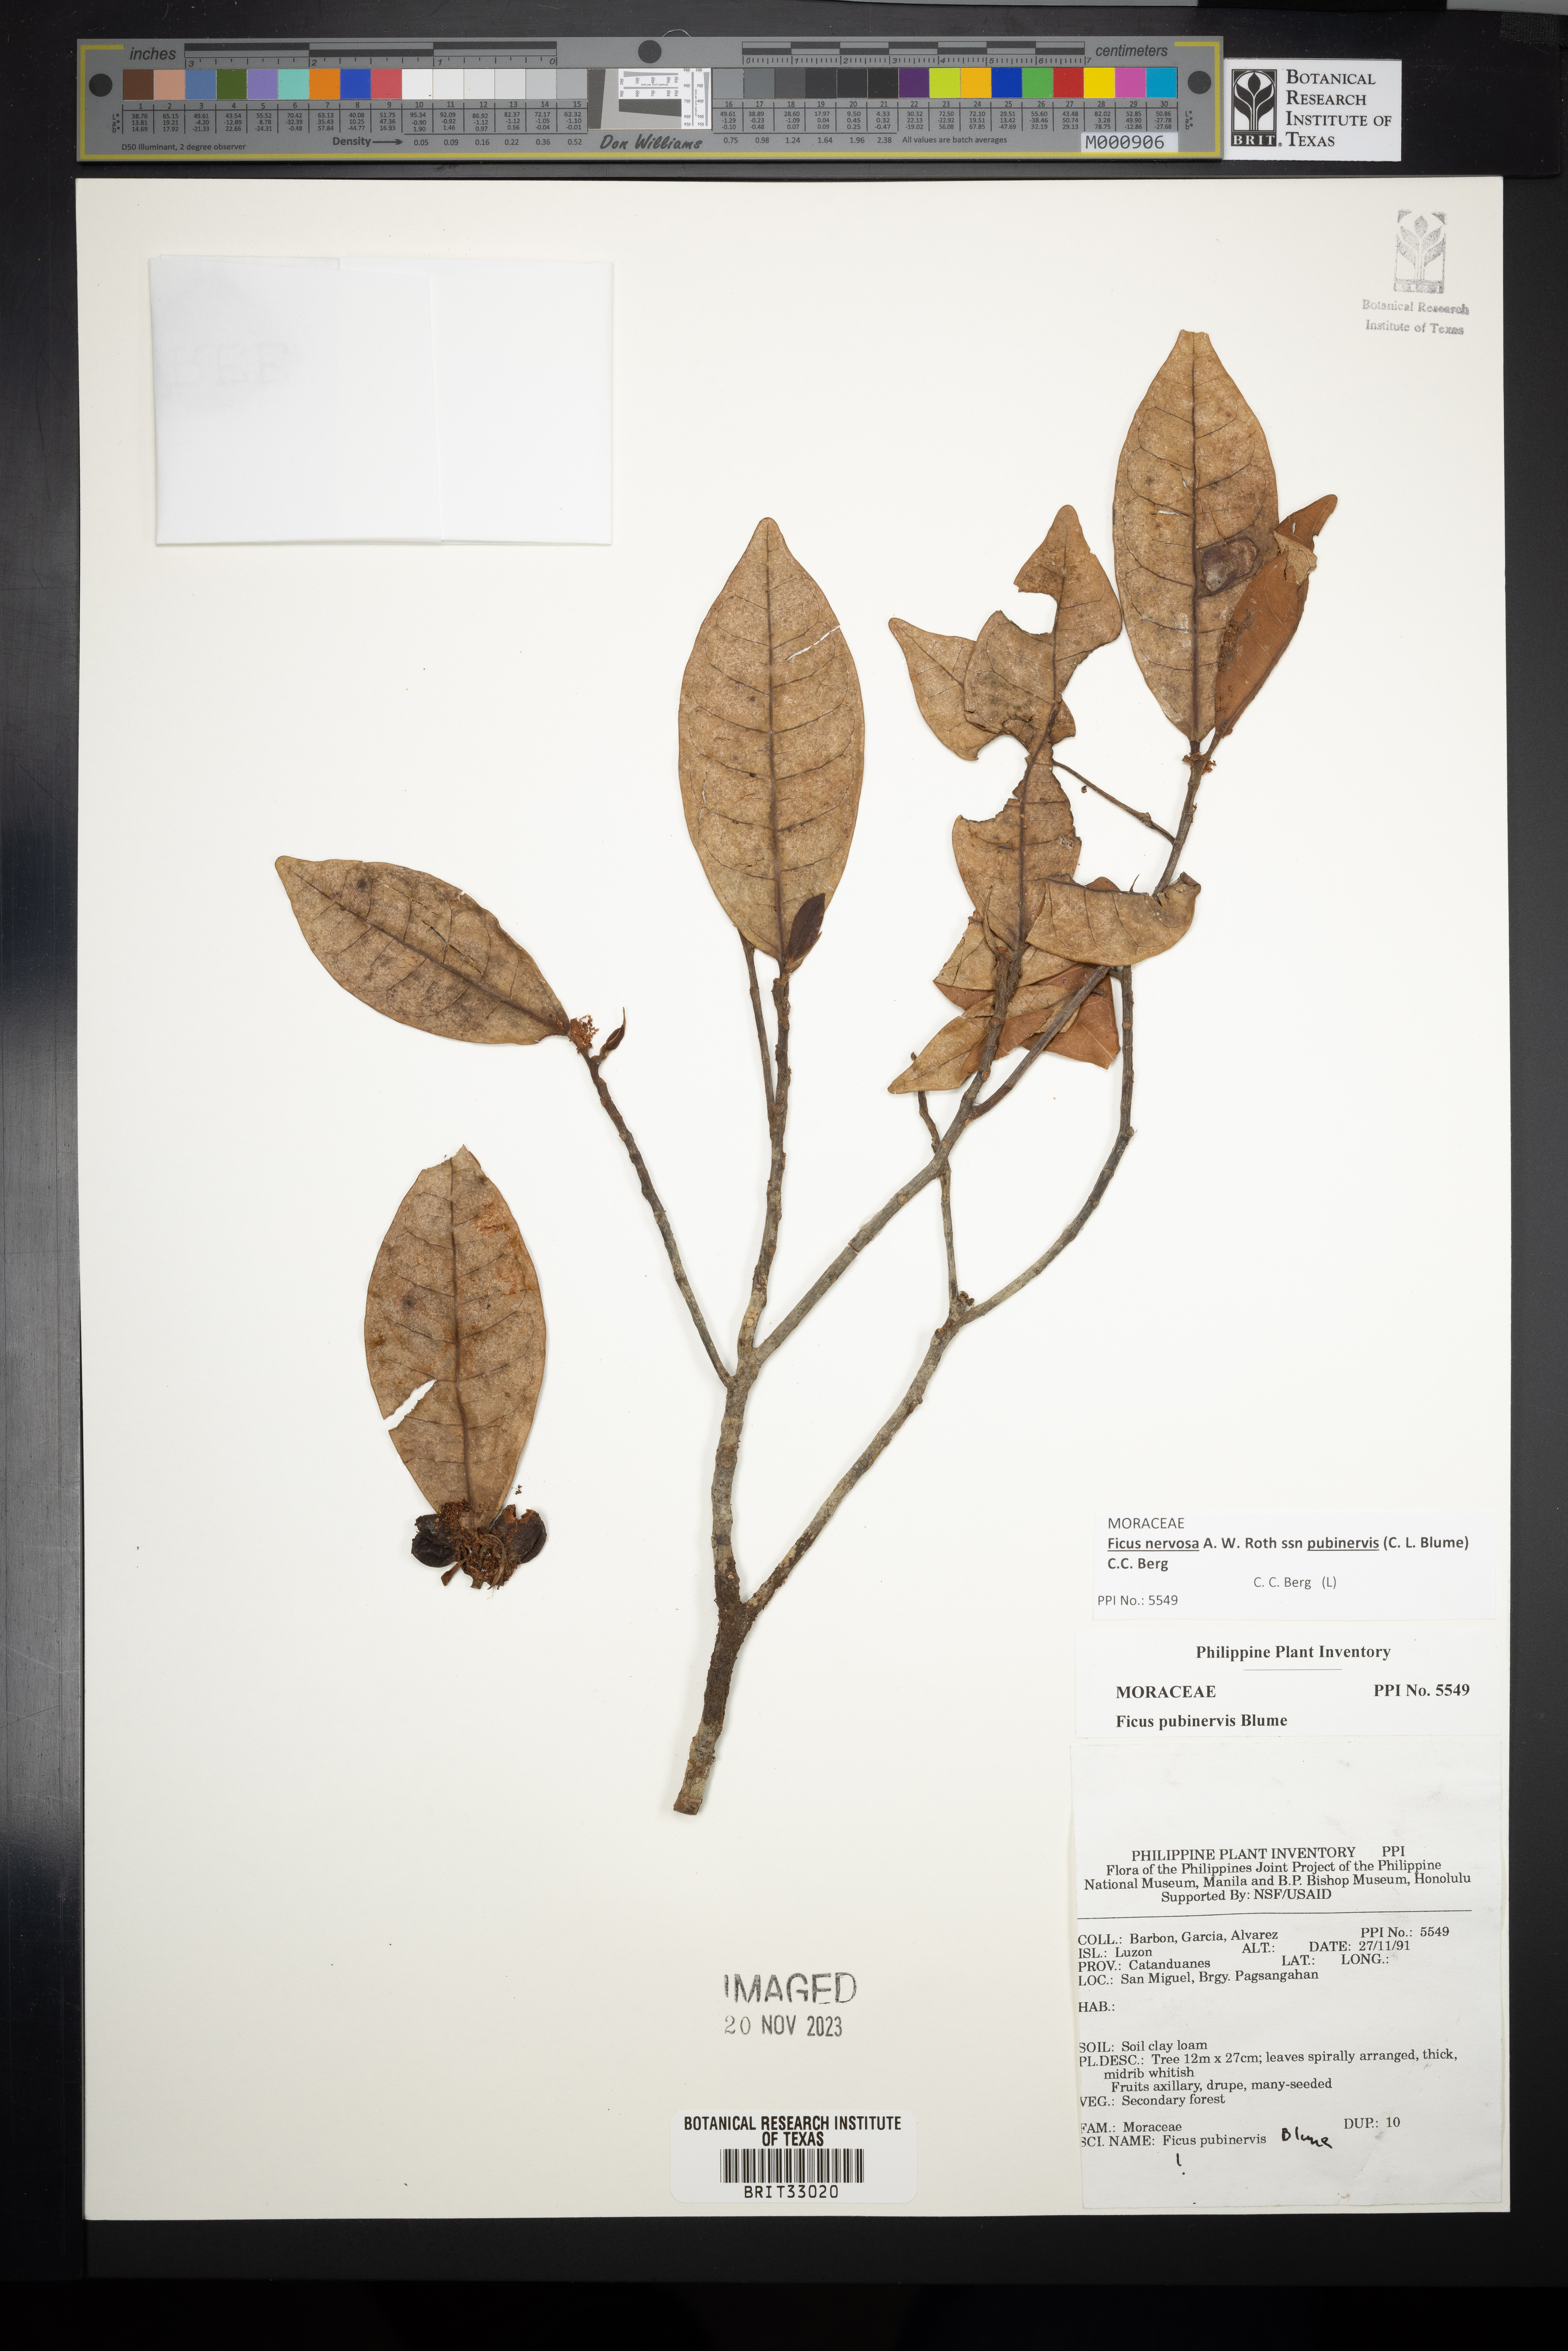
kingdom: Plantae
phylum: Tracheophyta
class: Magnoliopsida
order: Rosales
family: Moraceae
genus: Ficus
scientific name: Ficus nervosa
